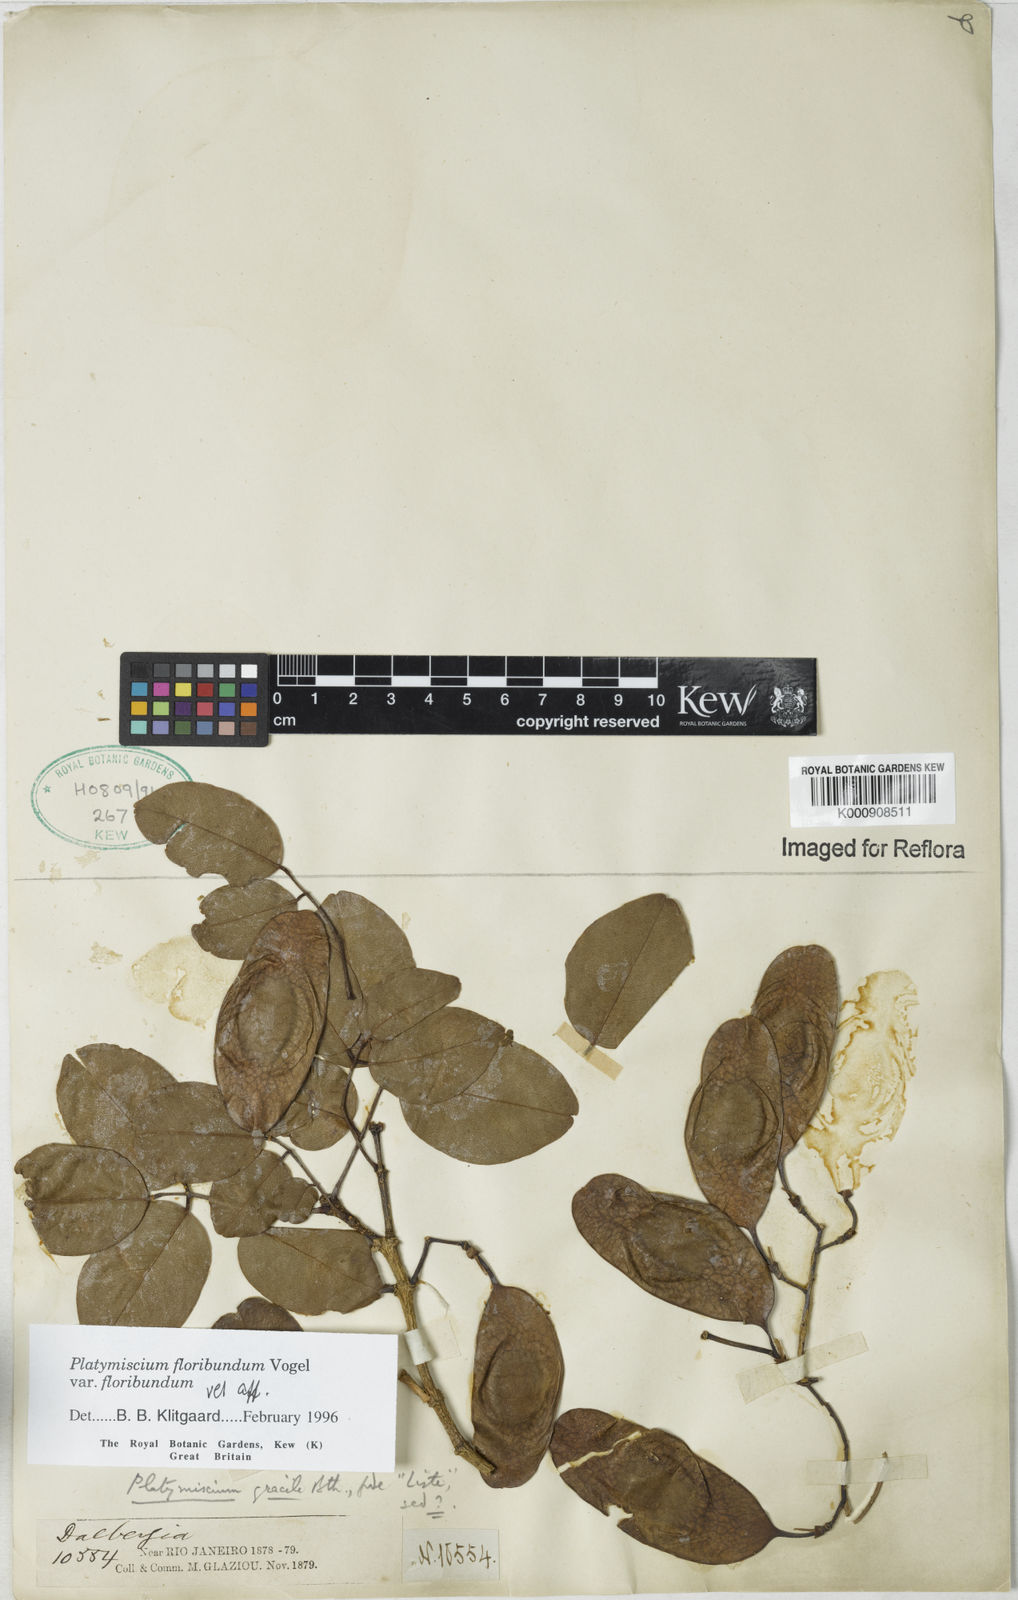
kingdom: Plantae
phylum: Tracheophyta
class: Magnoliopsida
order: Fabales
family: Fabaceae
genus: Platymiscium
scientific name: Platymiscium floribundum
